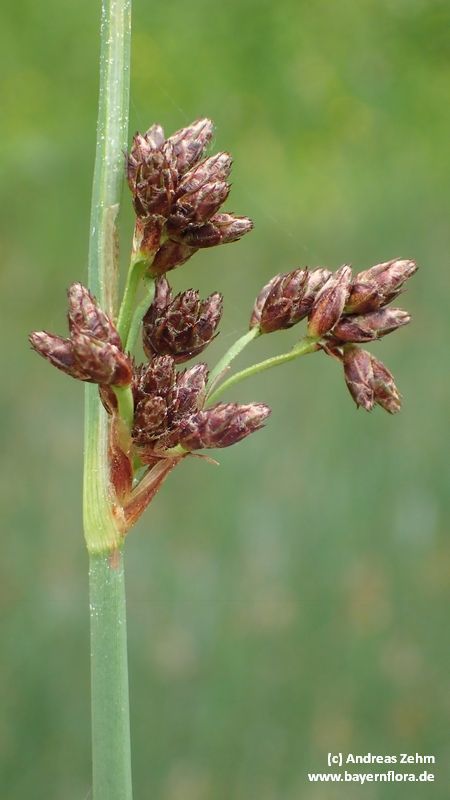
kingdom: Plantae
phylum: Tracheophyta
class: Liliopsida
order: Poales
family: Cyperaceae
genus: Schoenoplectus
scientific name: Schoenoplectus tabernaemontani
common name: Grey club-rush
